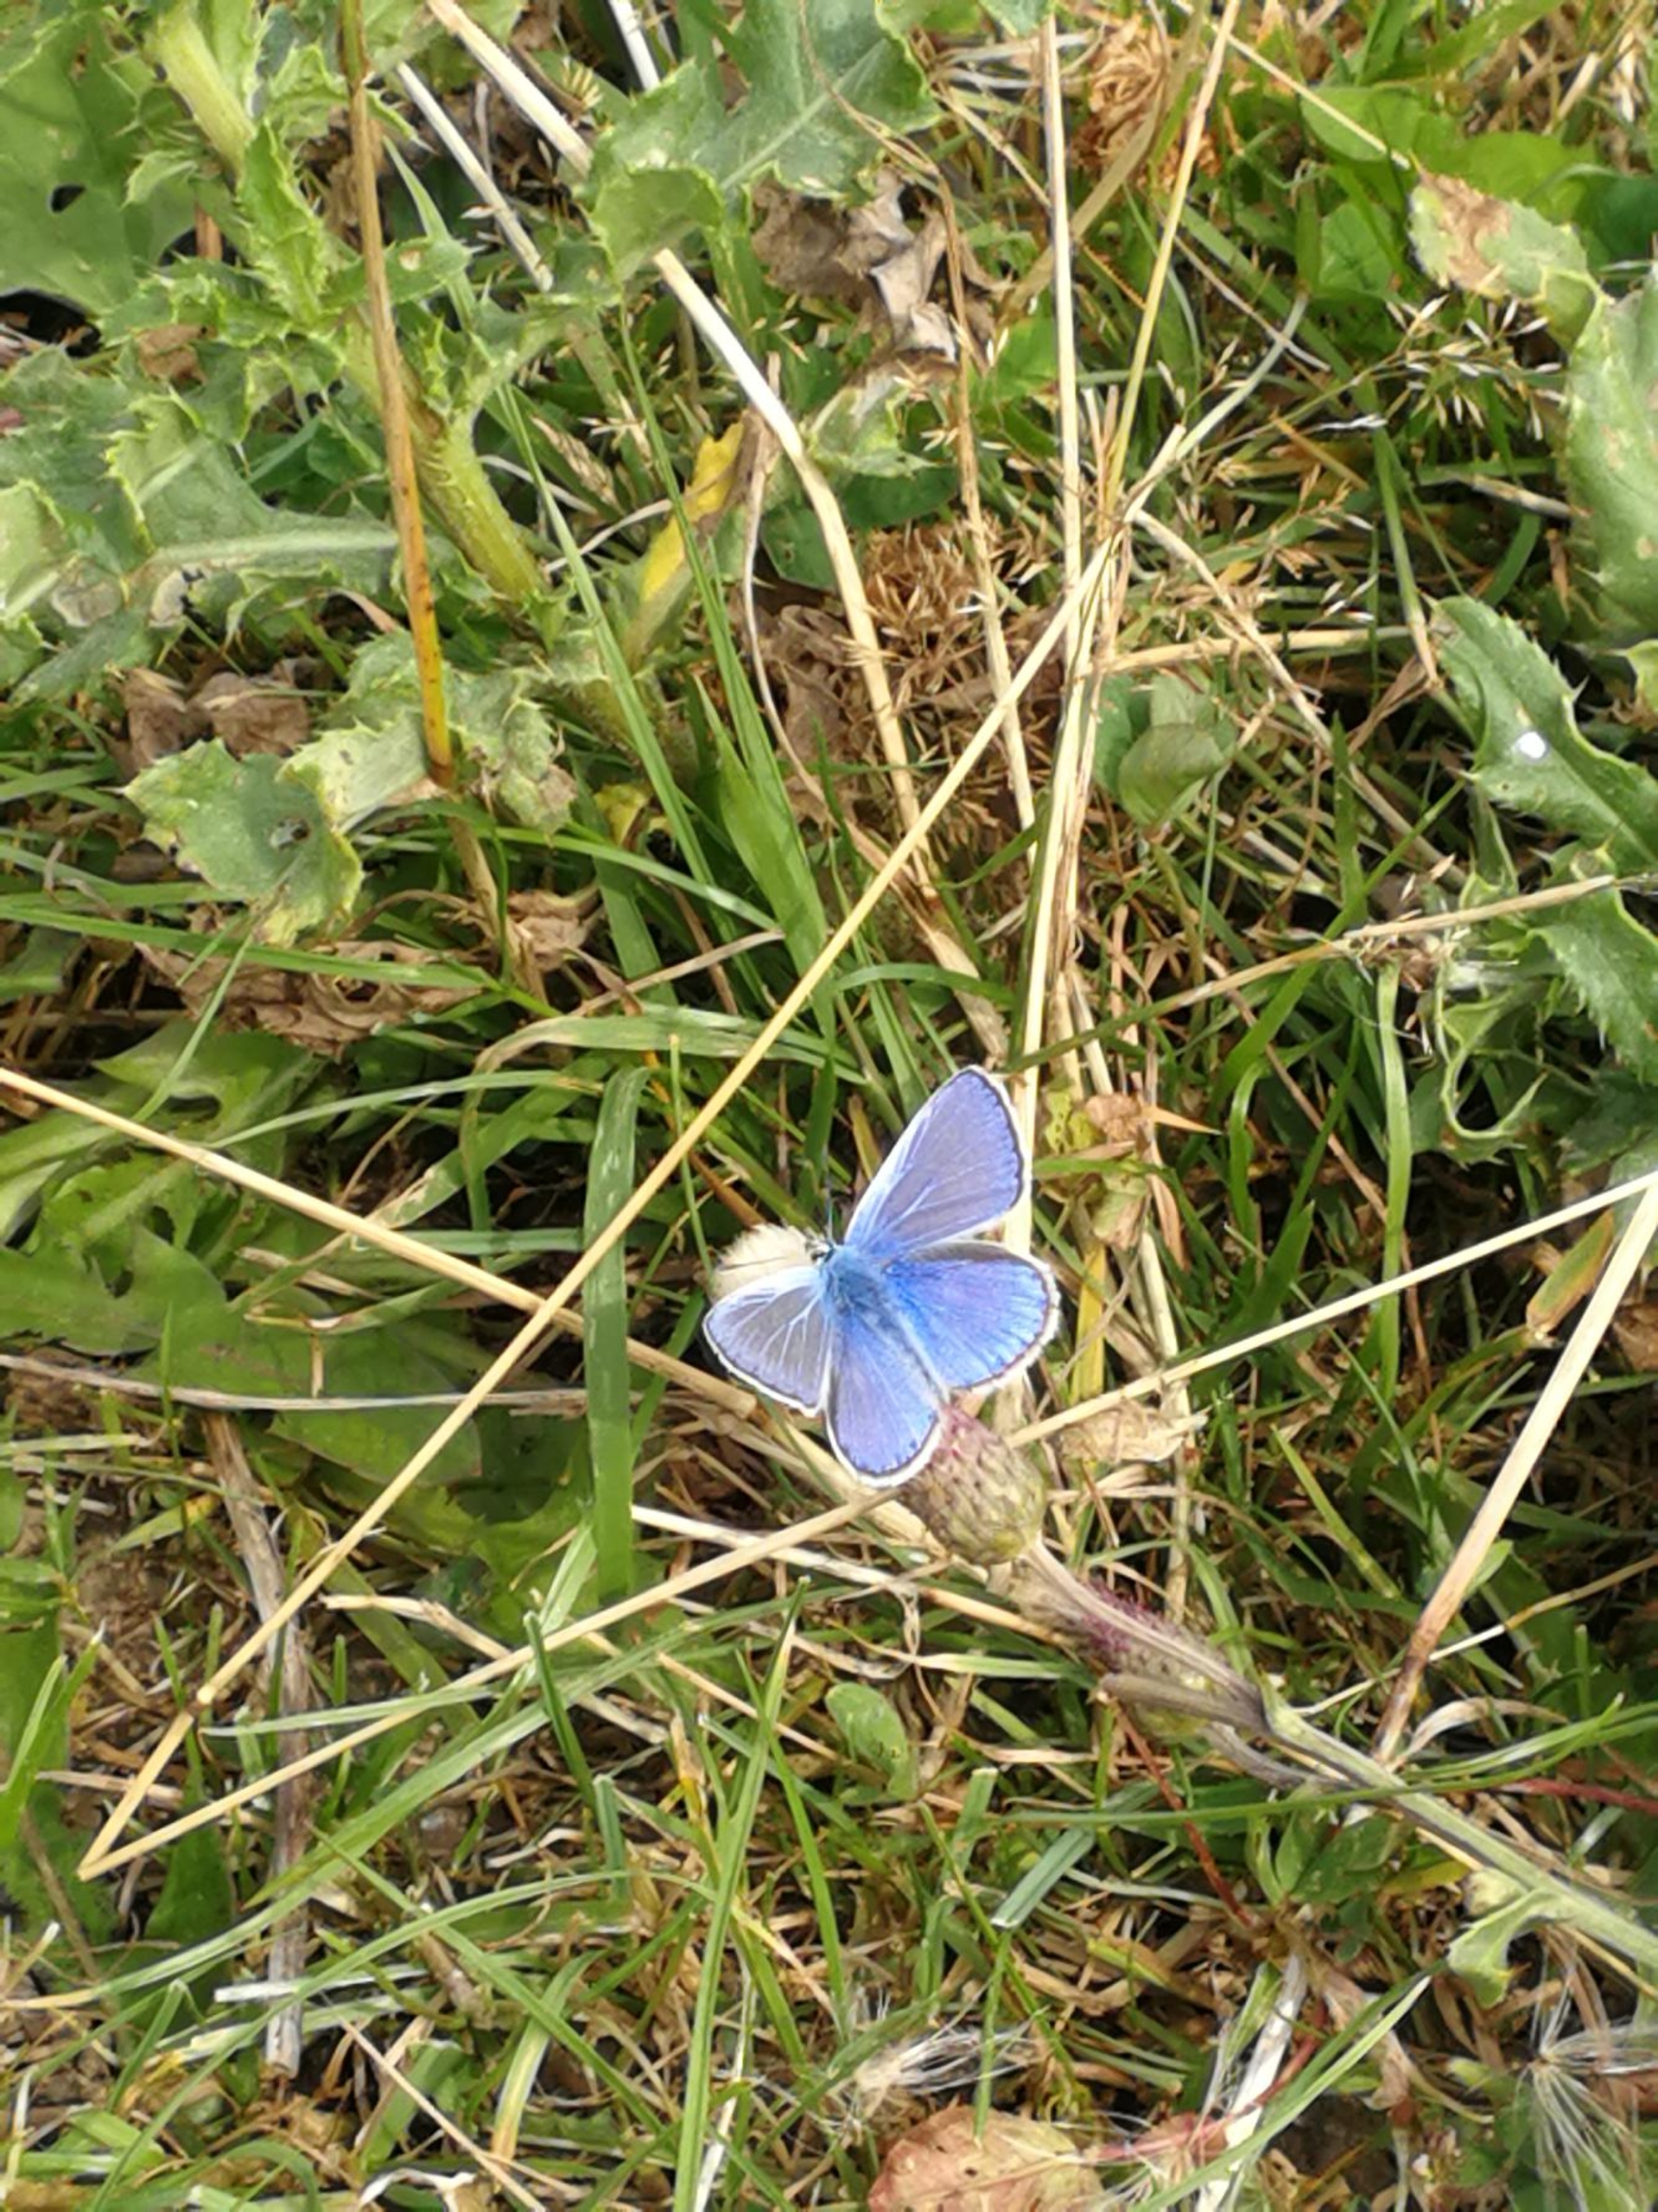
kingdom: Animalia
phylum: Arthropoda
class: Insecta
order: Lepidoptera
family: Lycaenidae
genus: Polyommatus
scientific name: Polyommatus icarus
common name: Almindelig blåfugl
